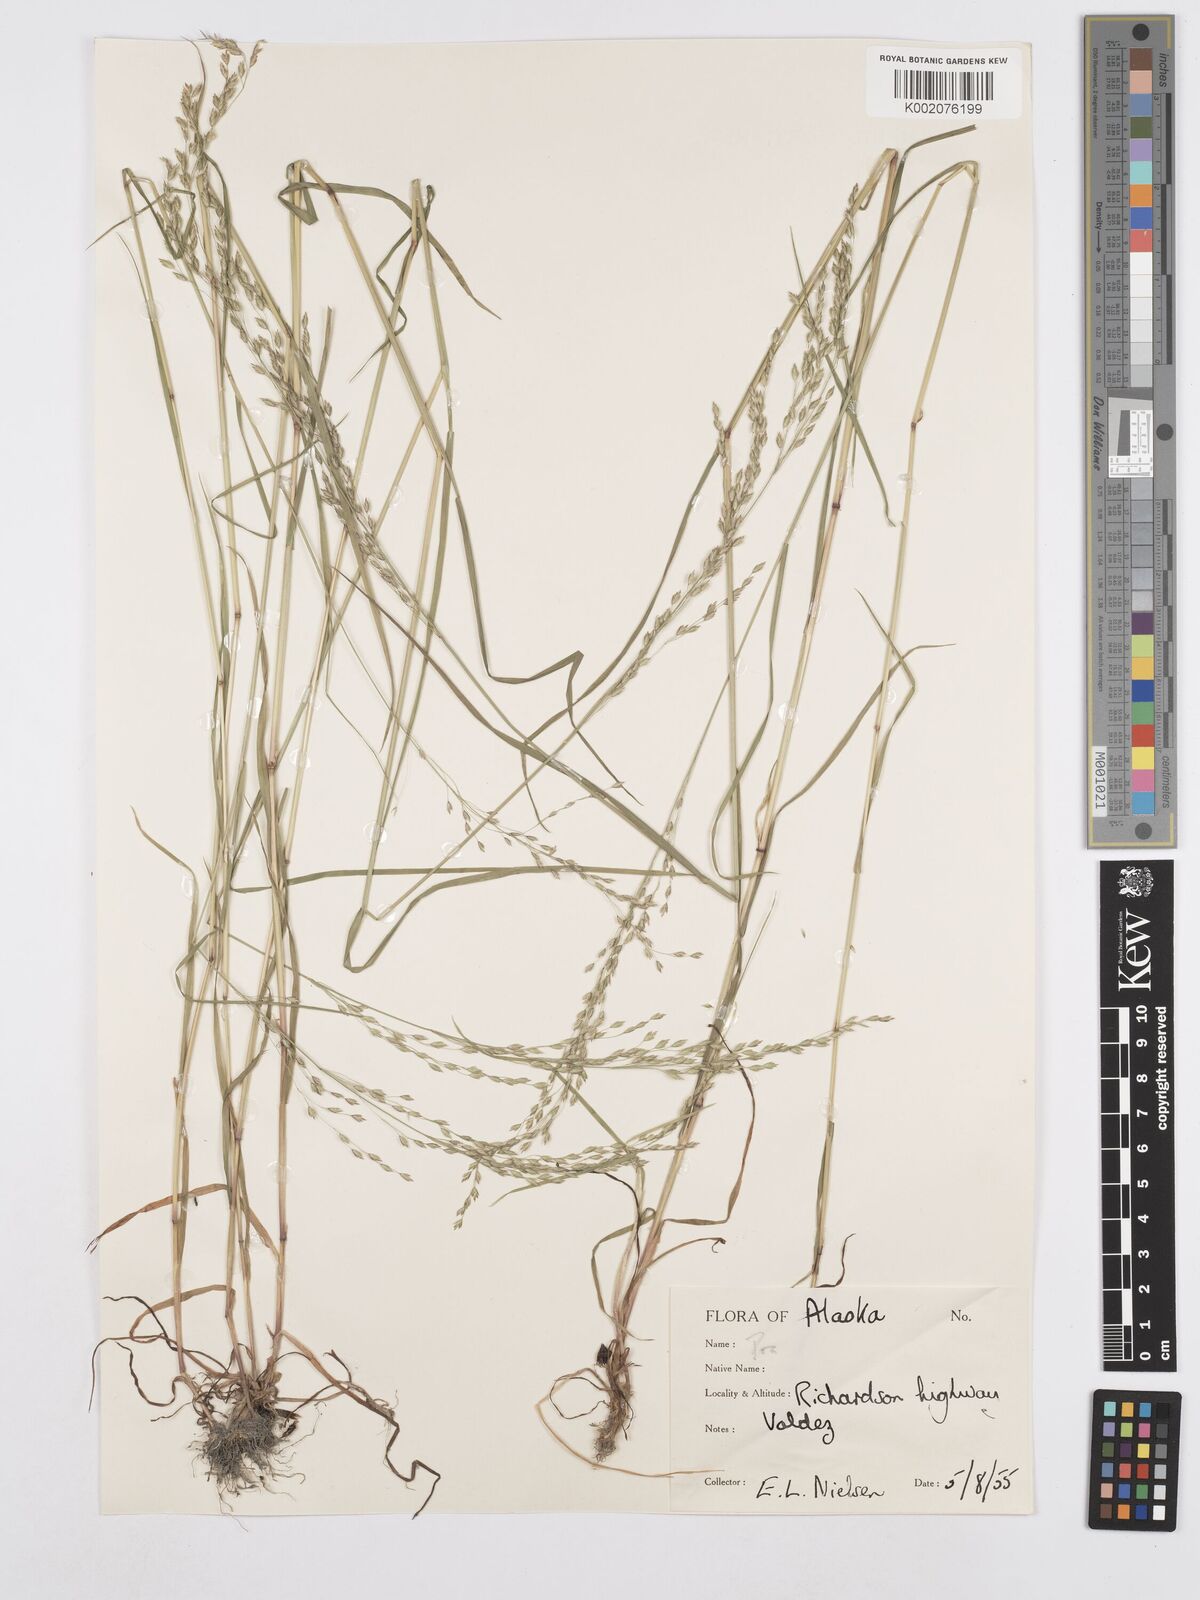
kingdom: Plantae
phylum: Tracheophyta
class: Liliopsida
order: Poales
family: Poaceae
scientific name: Poaceae
